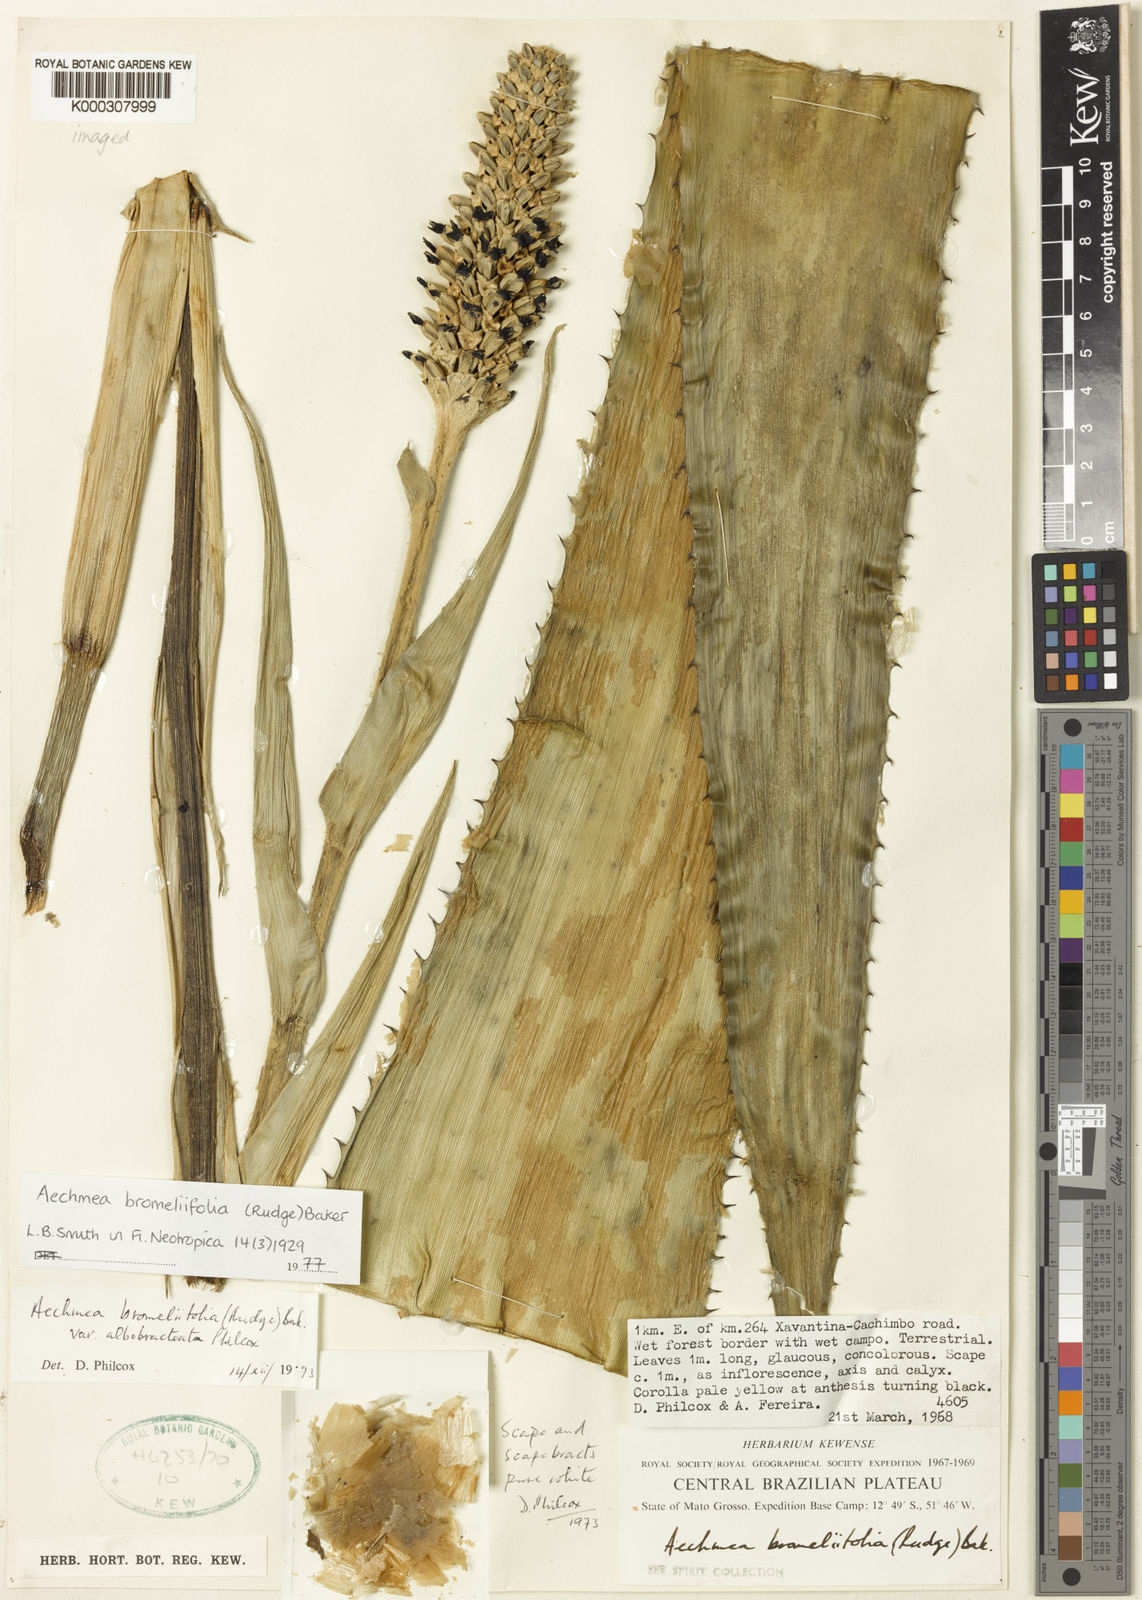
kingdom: Plantae
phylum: Tracheophyta
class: Liliopsida
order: Poales
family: Bromeliaceae
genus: Aechmea
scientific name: Aechmea
